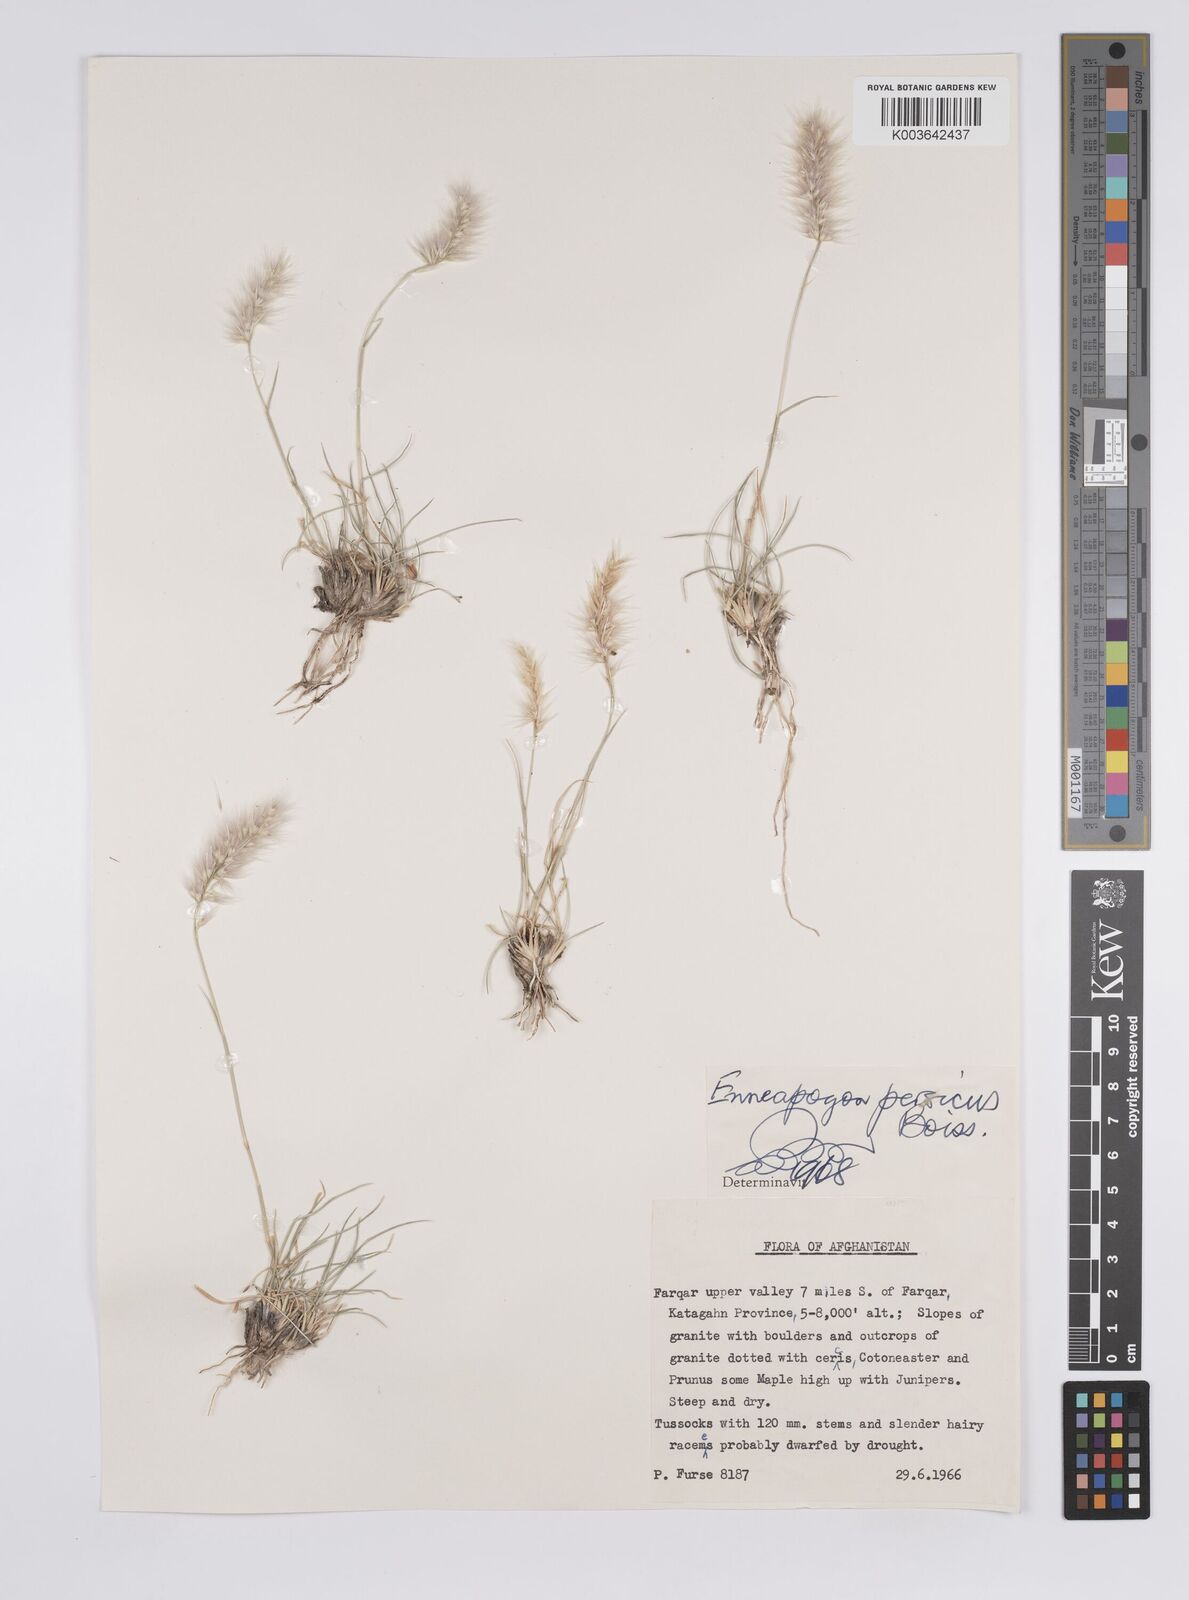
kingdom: Plantae
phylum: Tracheophyta
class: Liliopsida
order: Poales
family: Poaceae
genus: Enneapogon
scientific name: Enneapogon persicus
